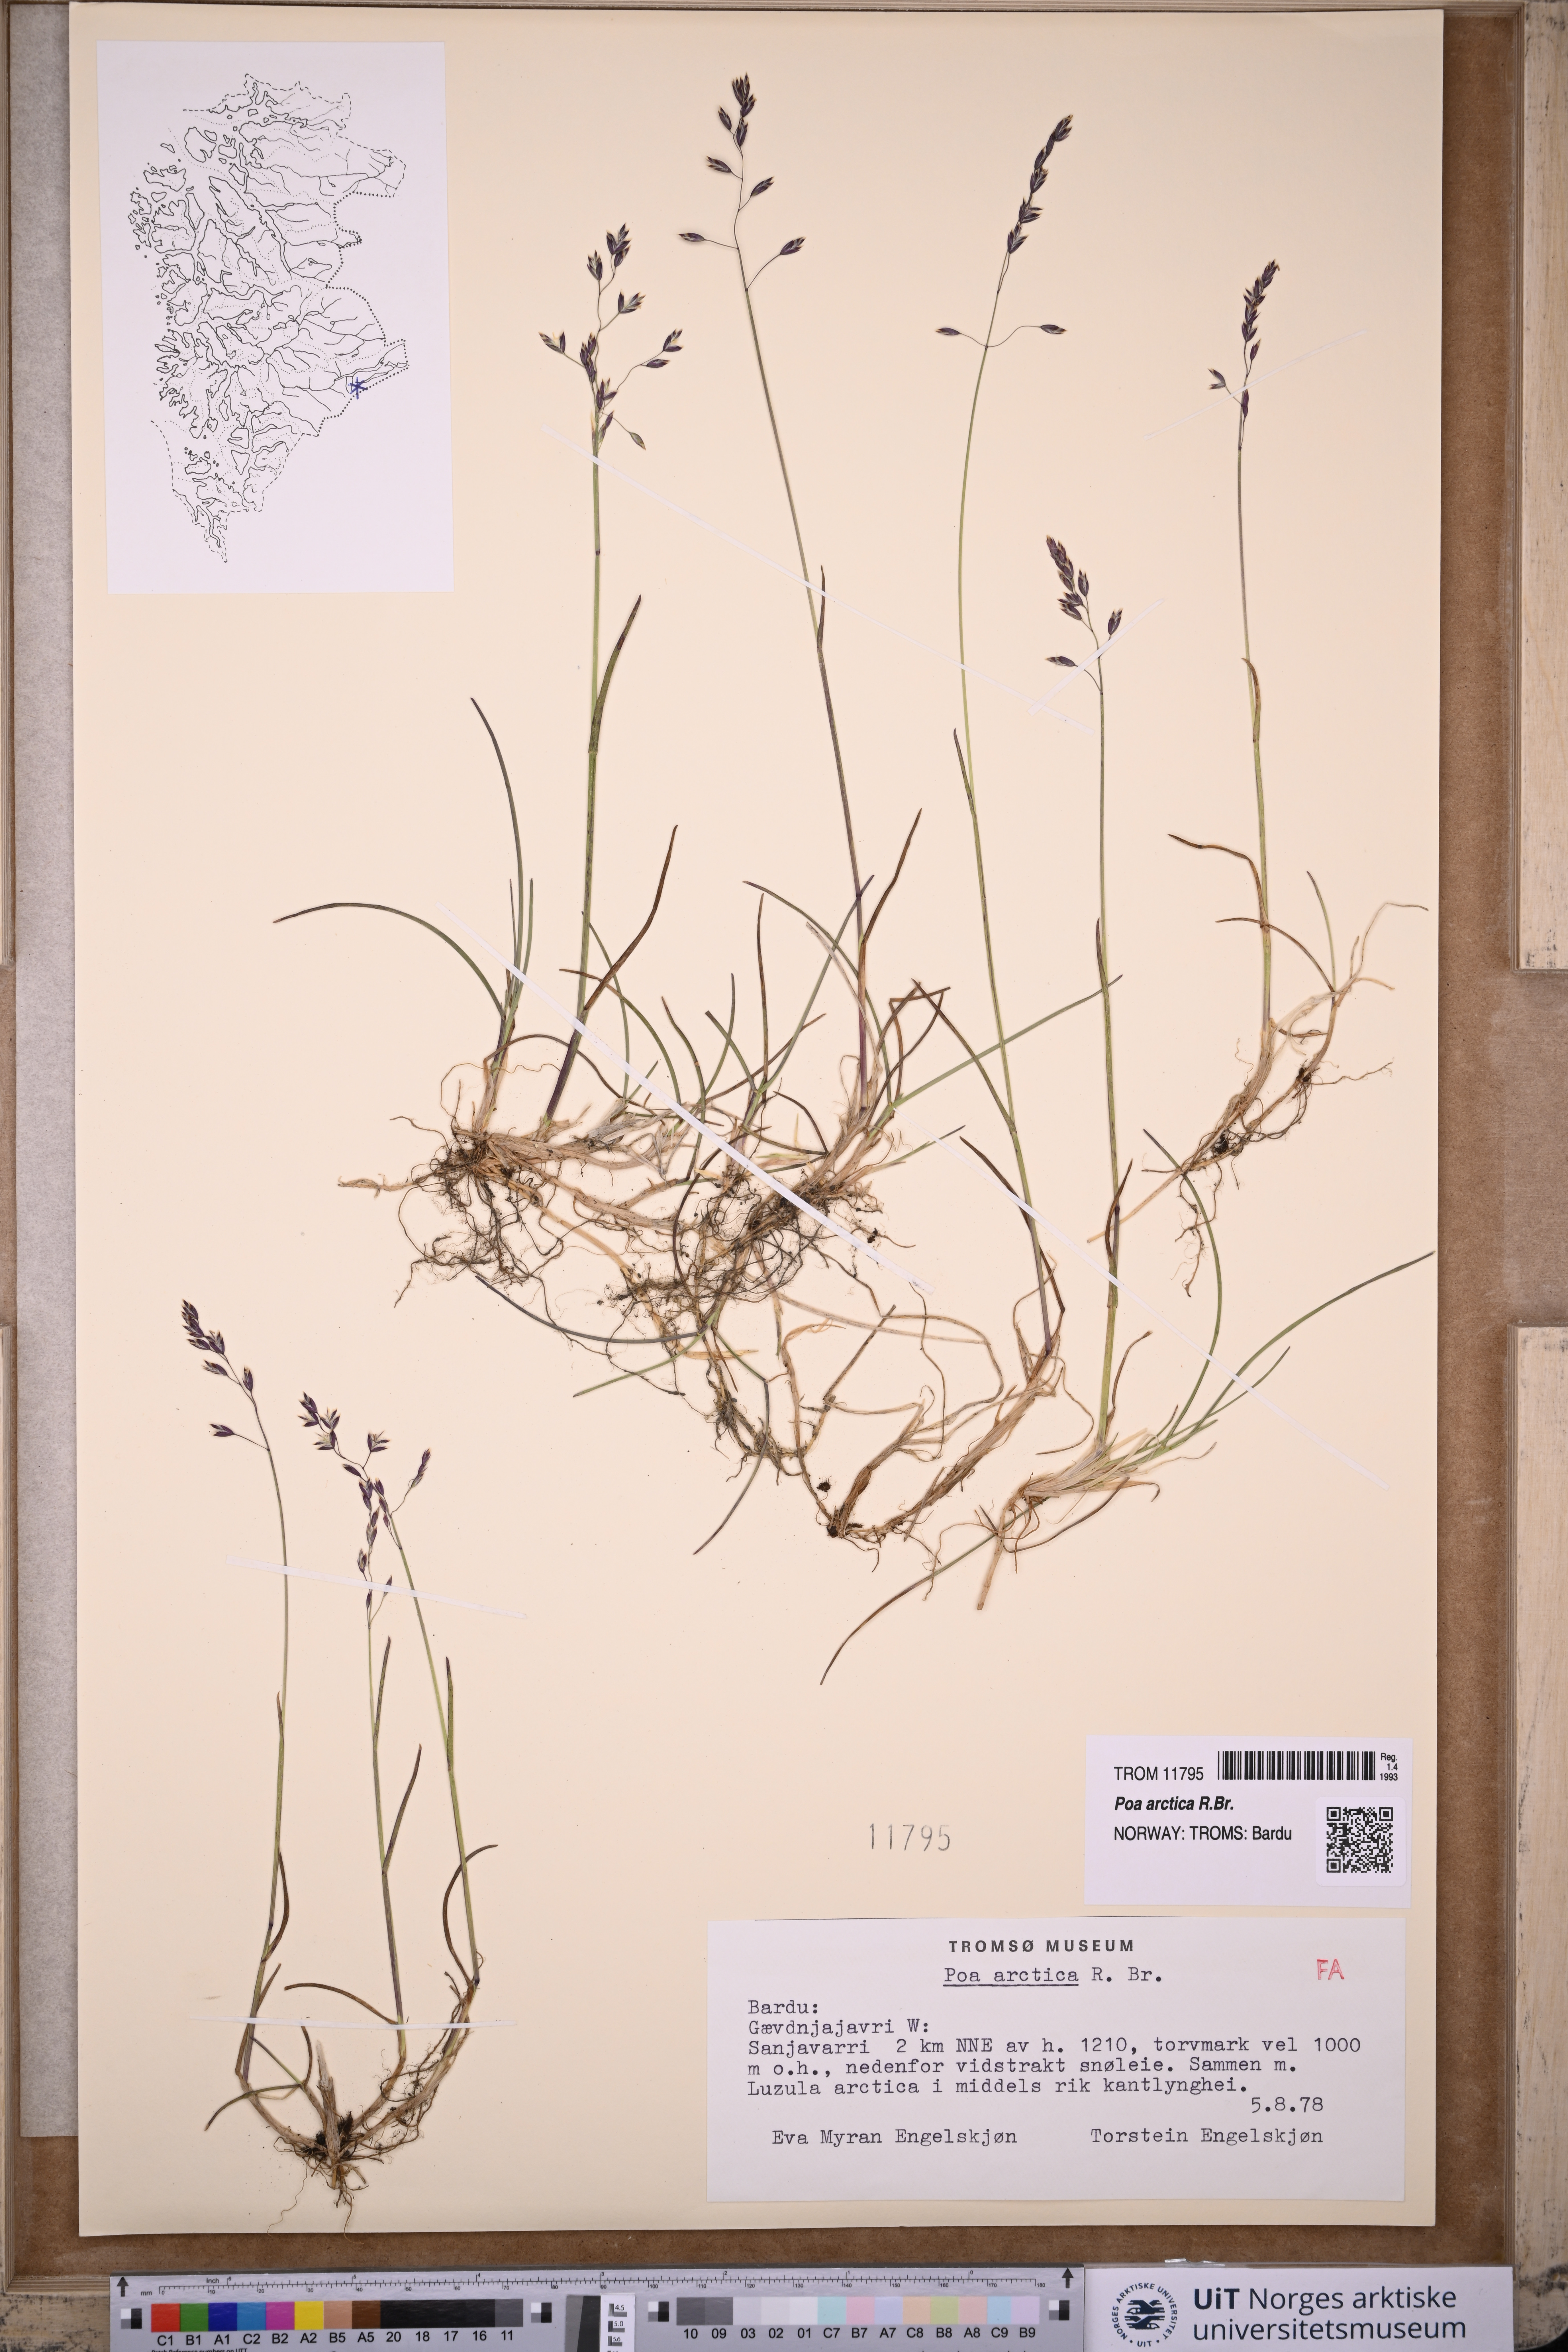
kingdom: Plantae
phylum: Tracheophyta
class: Liliopsida
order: Poales
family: Poaceae
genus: Poa
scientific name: Poa arctica
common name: Arctic bluegrass
